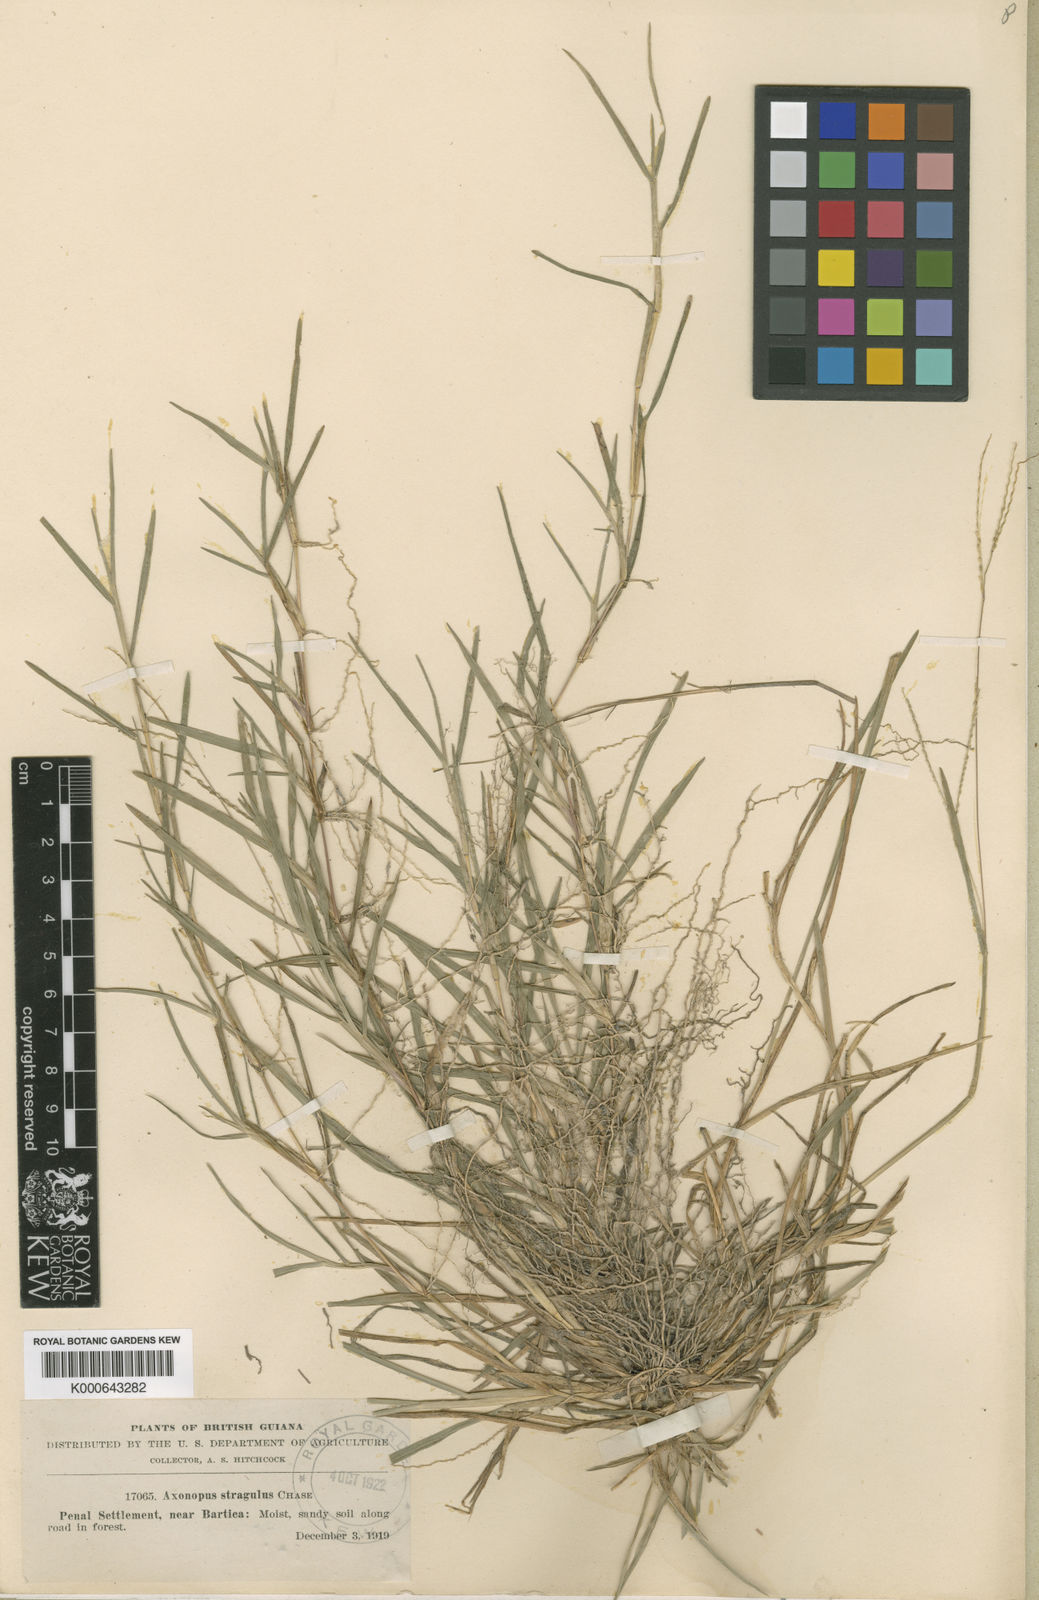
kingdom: Plantae
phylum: Tracheophyta
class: Liliopsida
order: Poales
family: Poaceae
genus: Axonopus
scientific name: Axonopus fissifolius
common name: Common carpetgrass
